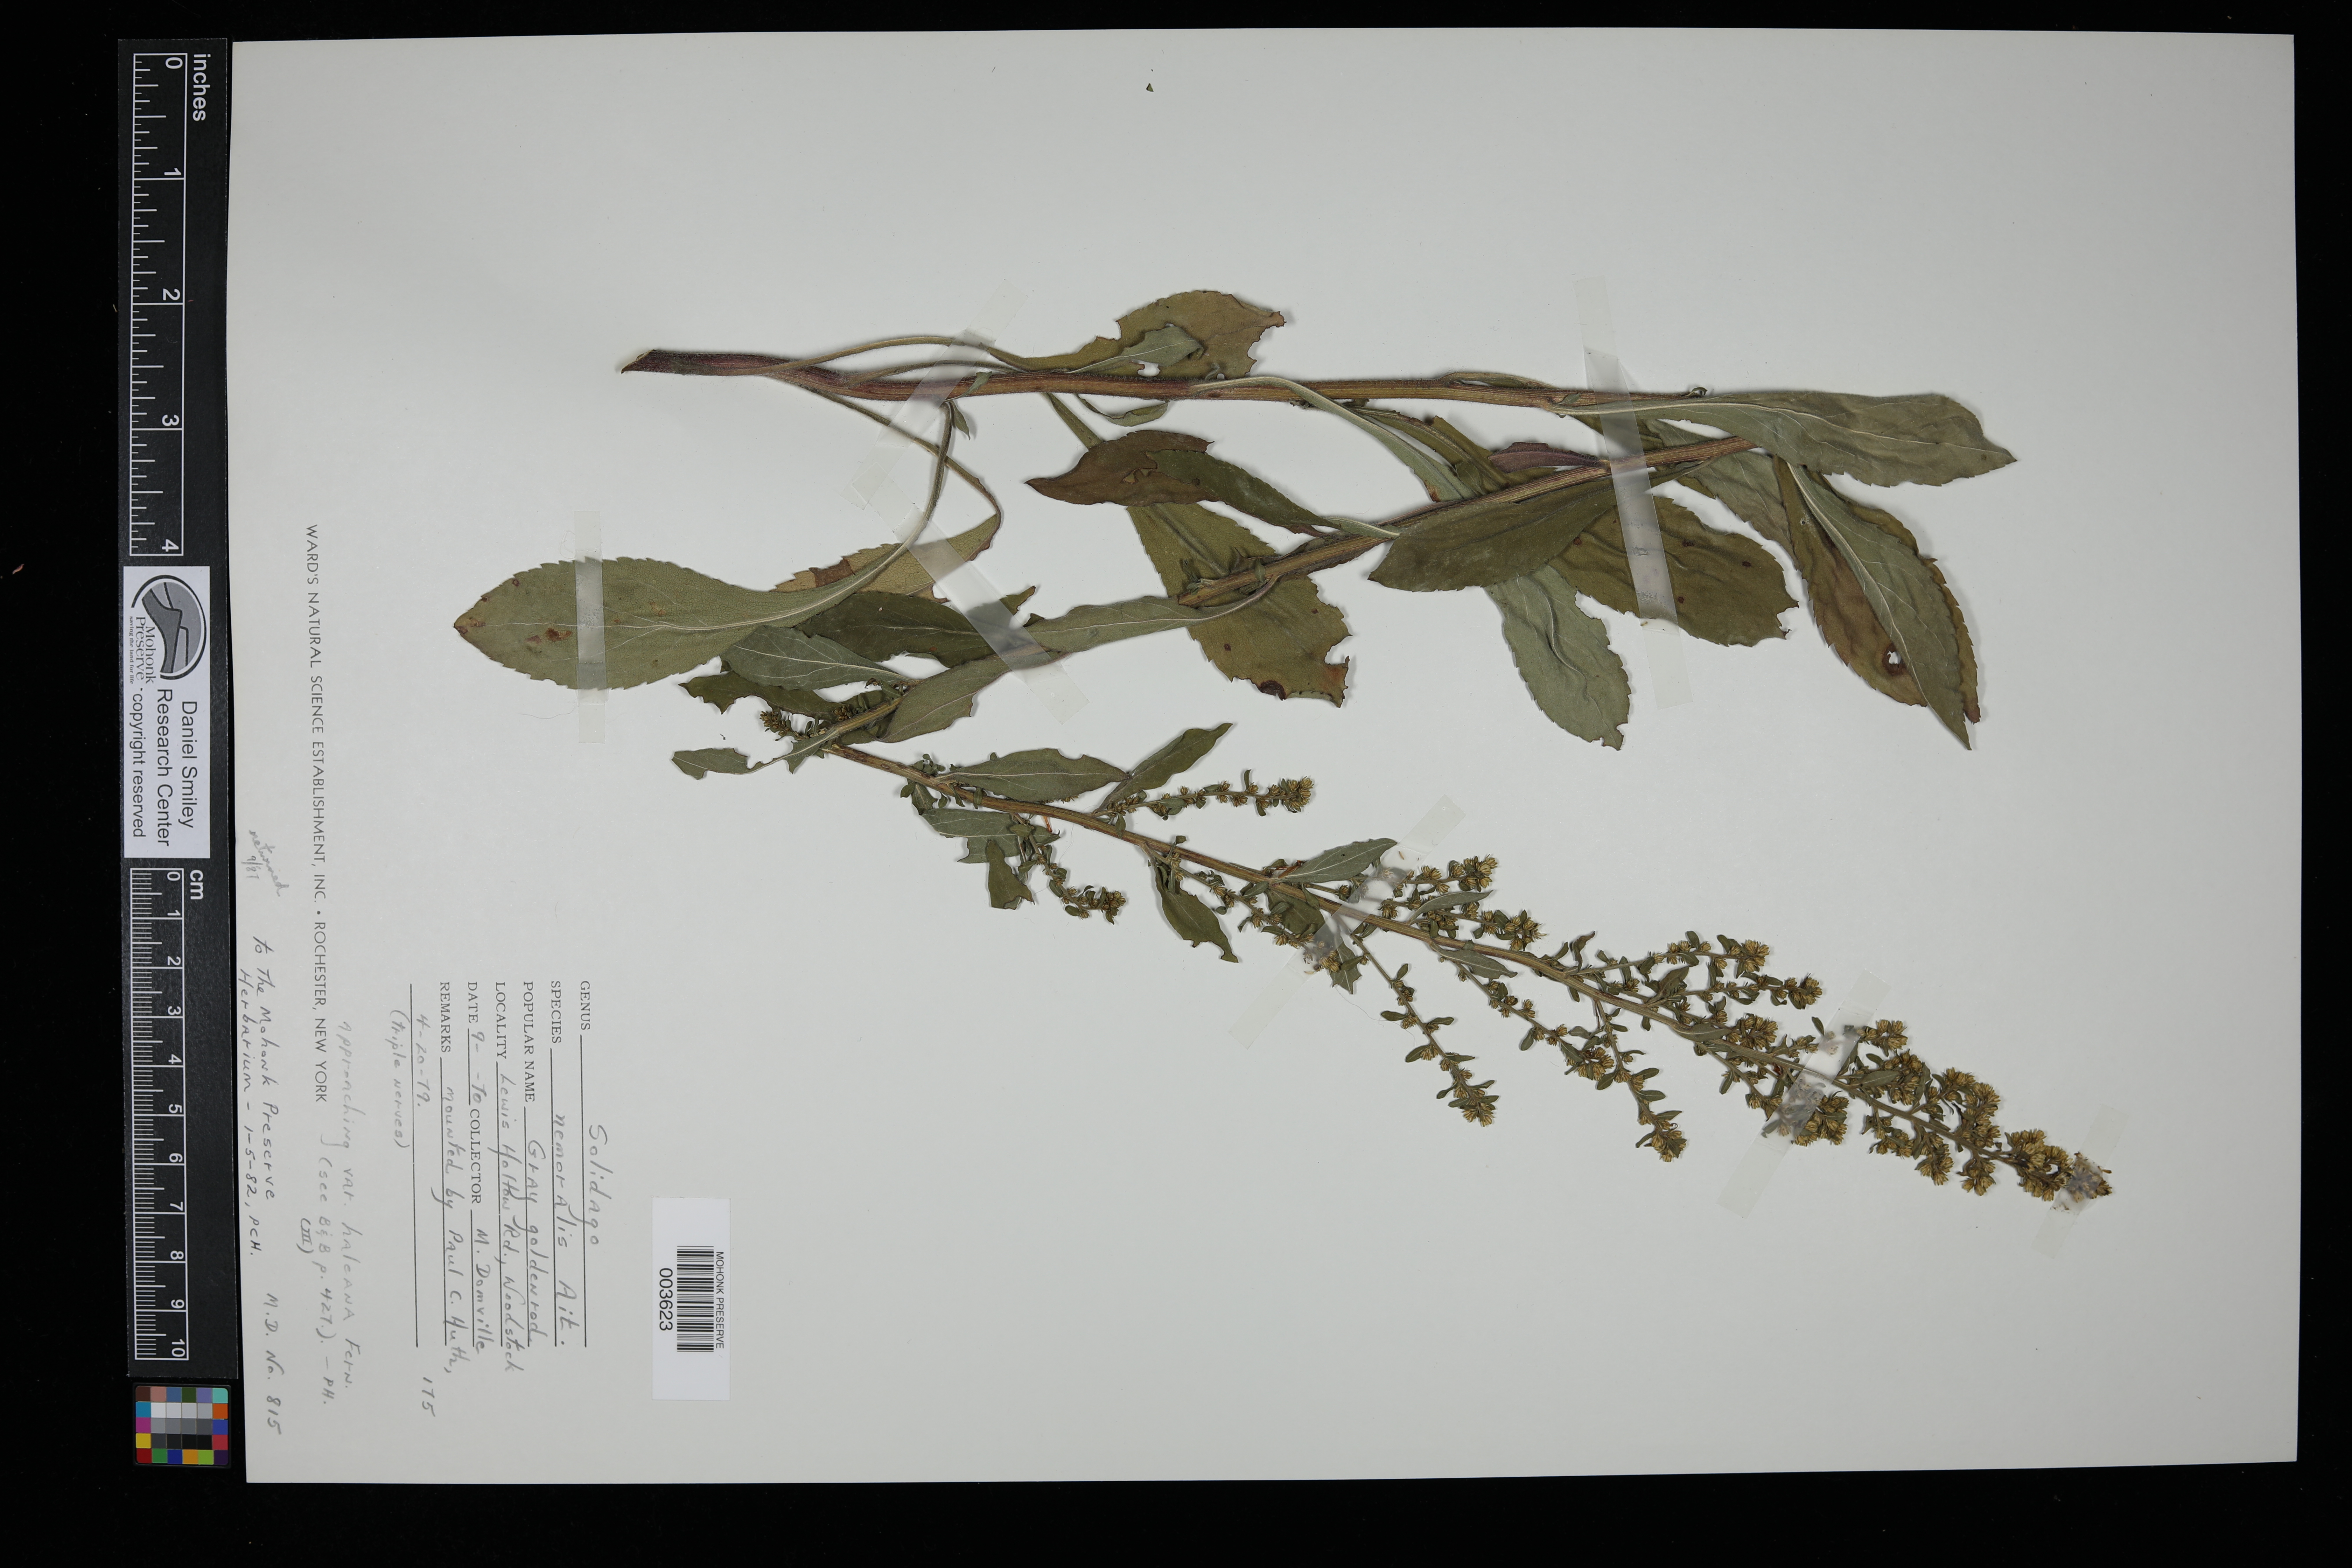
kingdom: Plantae
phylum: Tracheophyta
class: Magnoliopsida
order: Asterales
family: Asteraceae
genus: Solidago
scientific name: Solidago nemoralis
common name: Grey goldenrod
